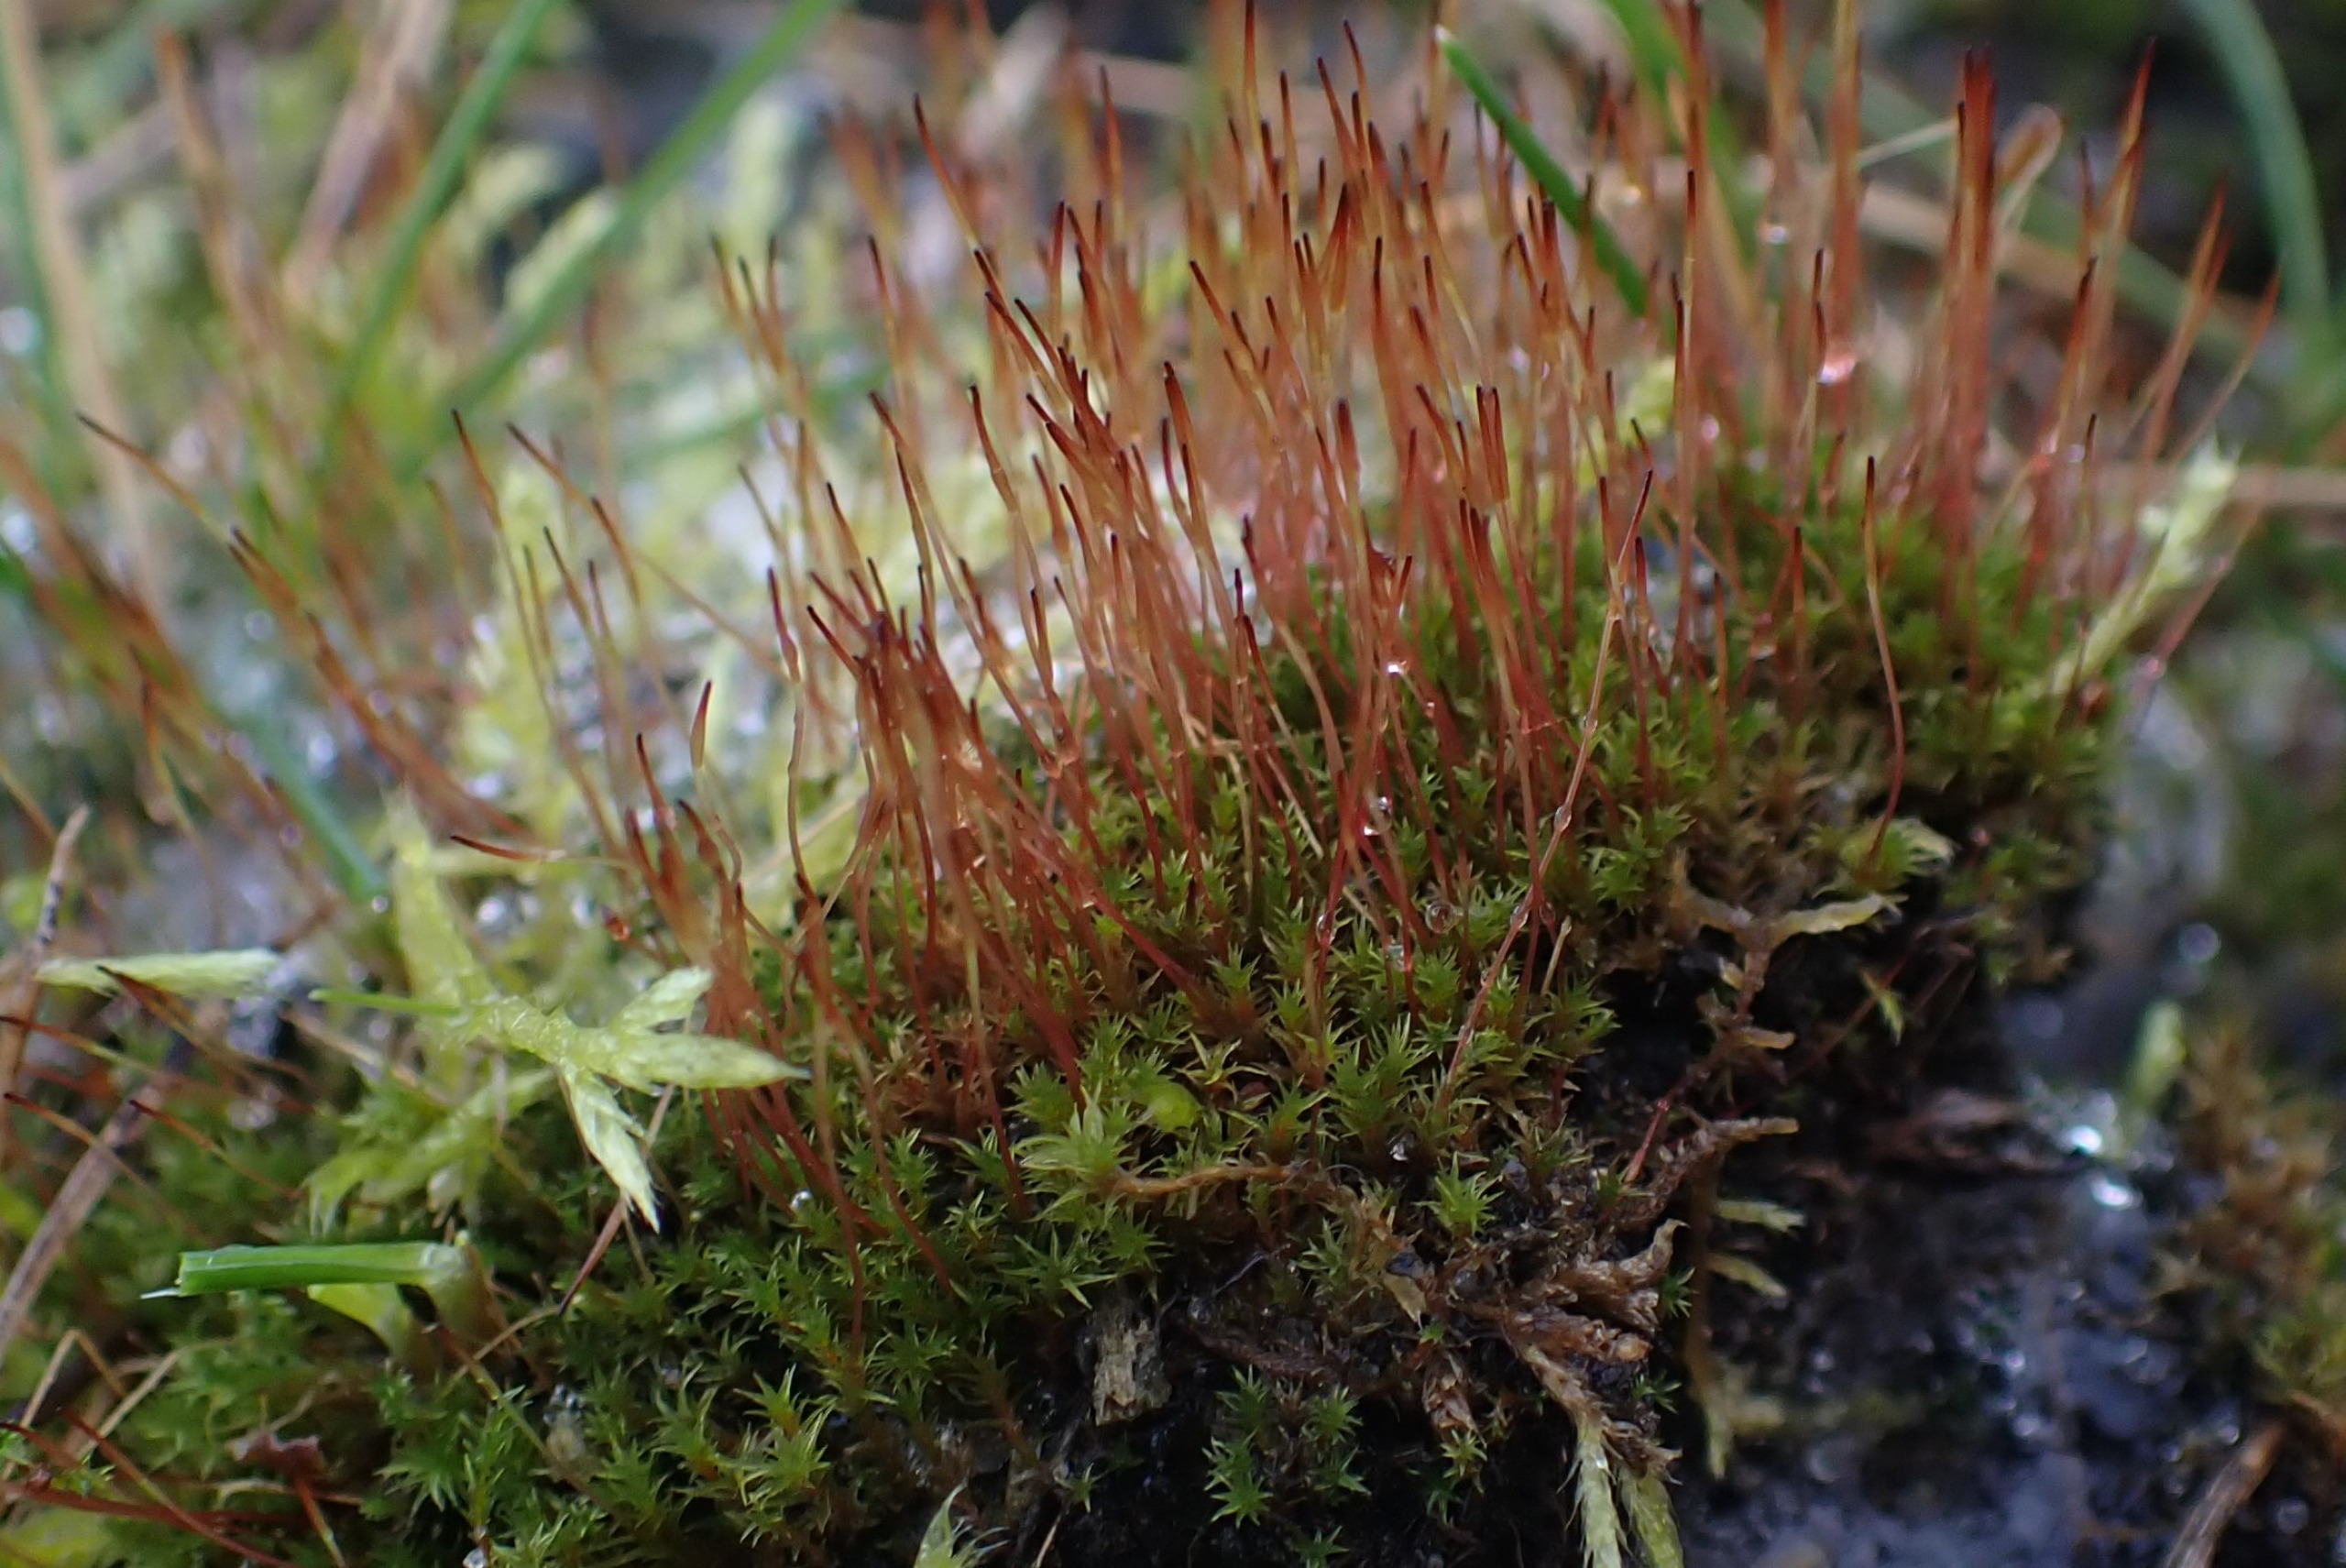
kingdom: Plantae
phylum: Bryophyta
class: Bryopsida
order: Dicranales
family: Ditrichaceae
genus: Ceratodon
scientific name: Ceratodon purpureus
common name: Rød horntand
